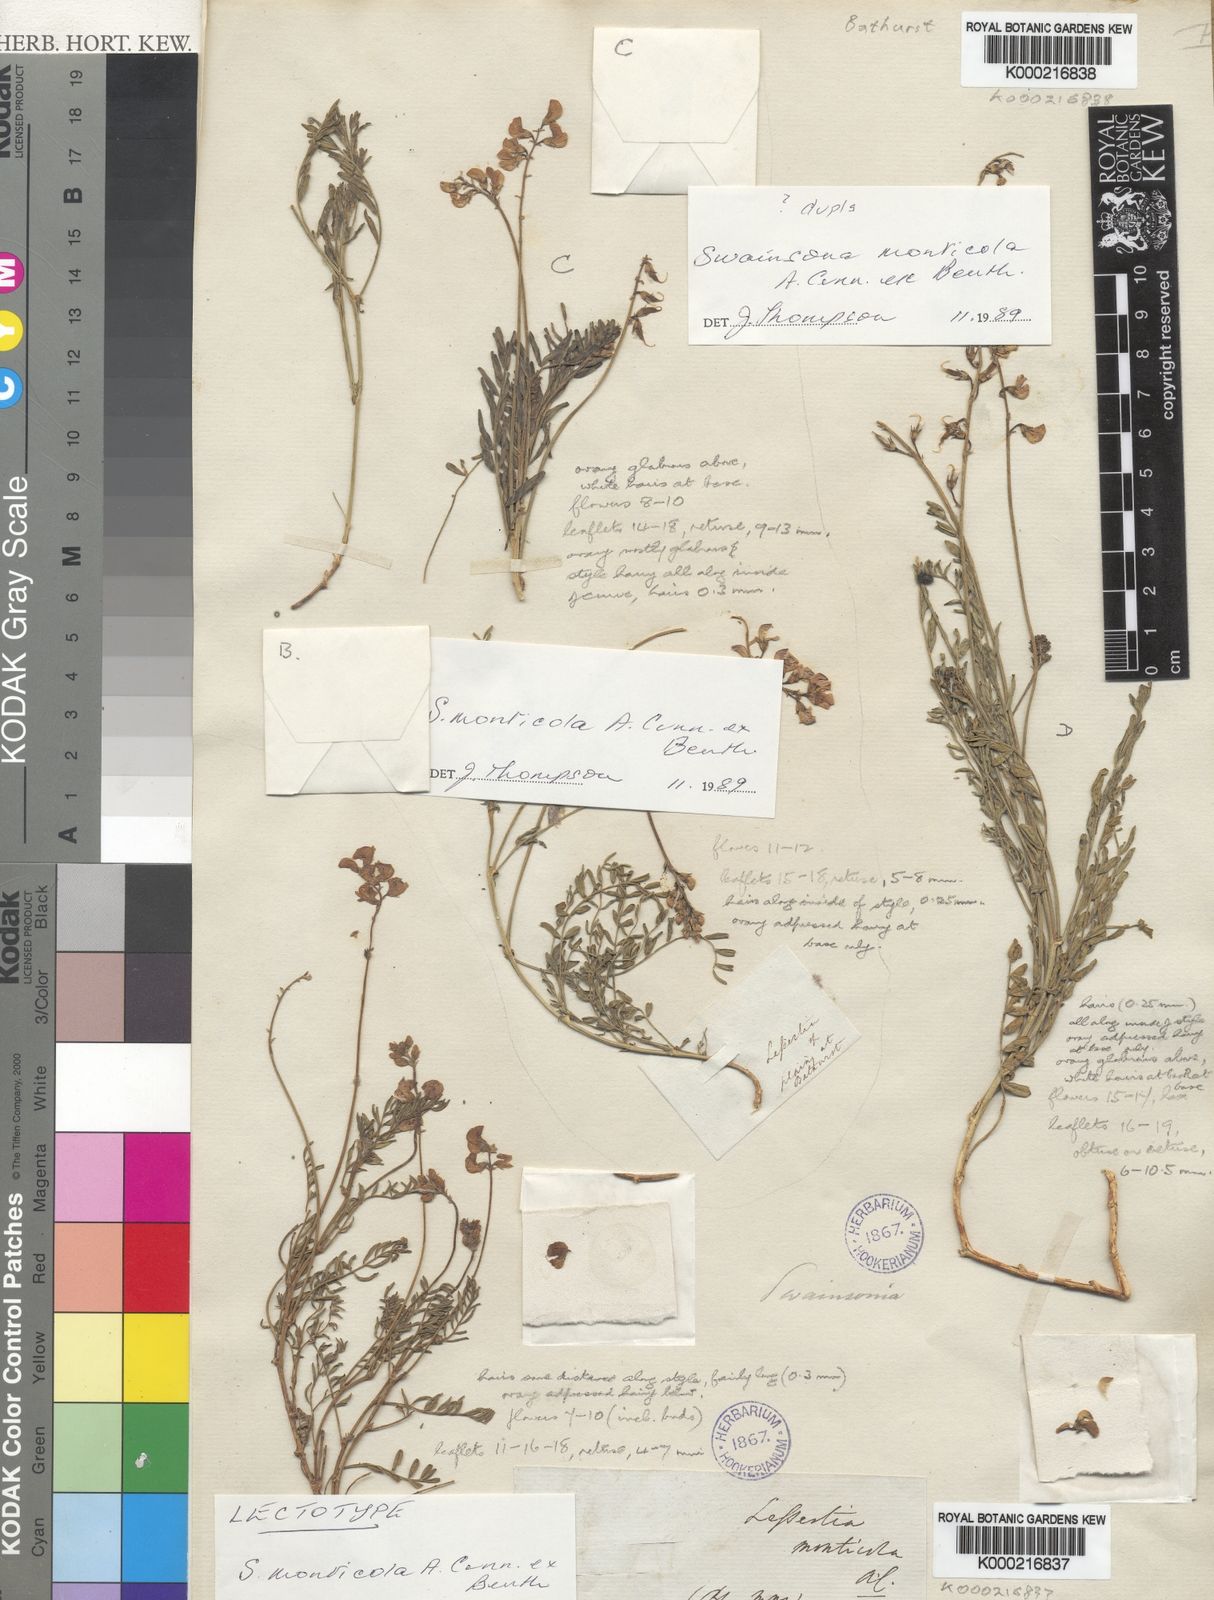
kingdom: Plantae
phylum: Tracheophyta
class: Magnoliopsida
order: Fabales
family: Fabaceae
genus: Swainsona
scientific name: Swainsona monticola
